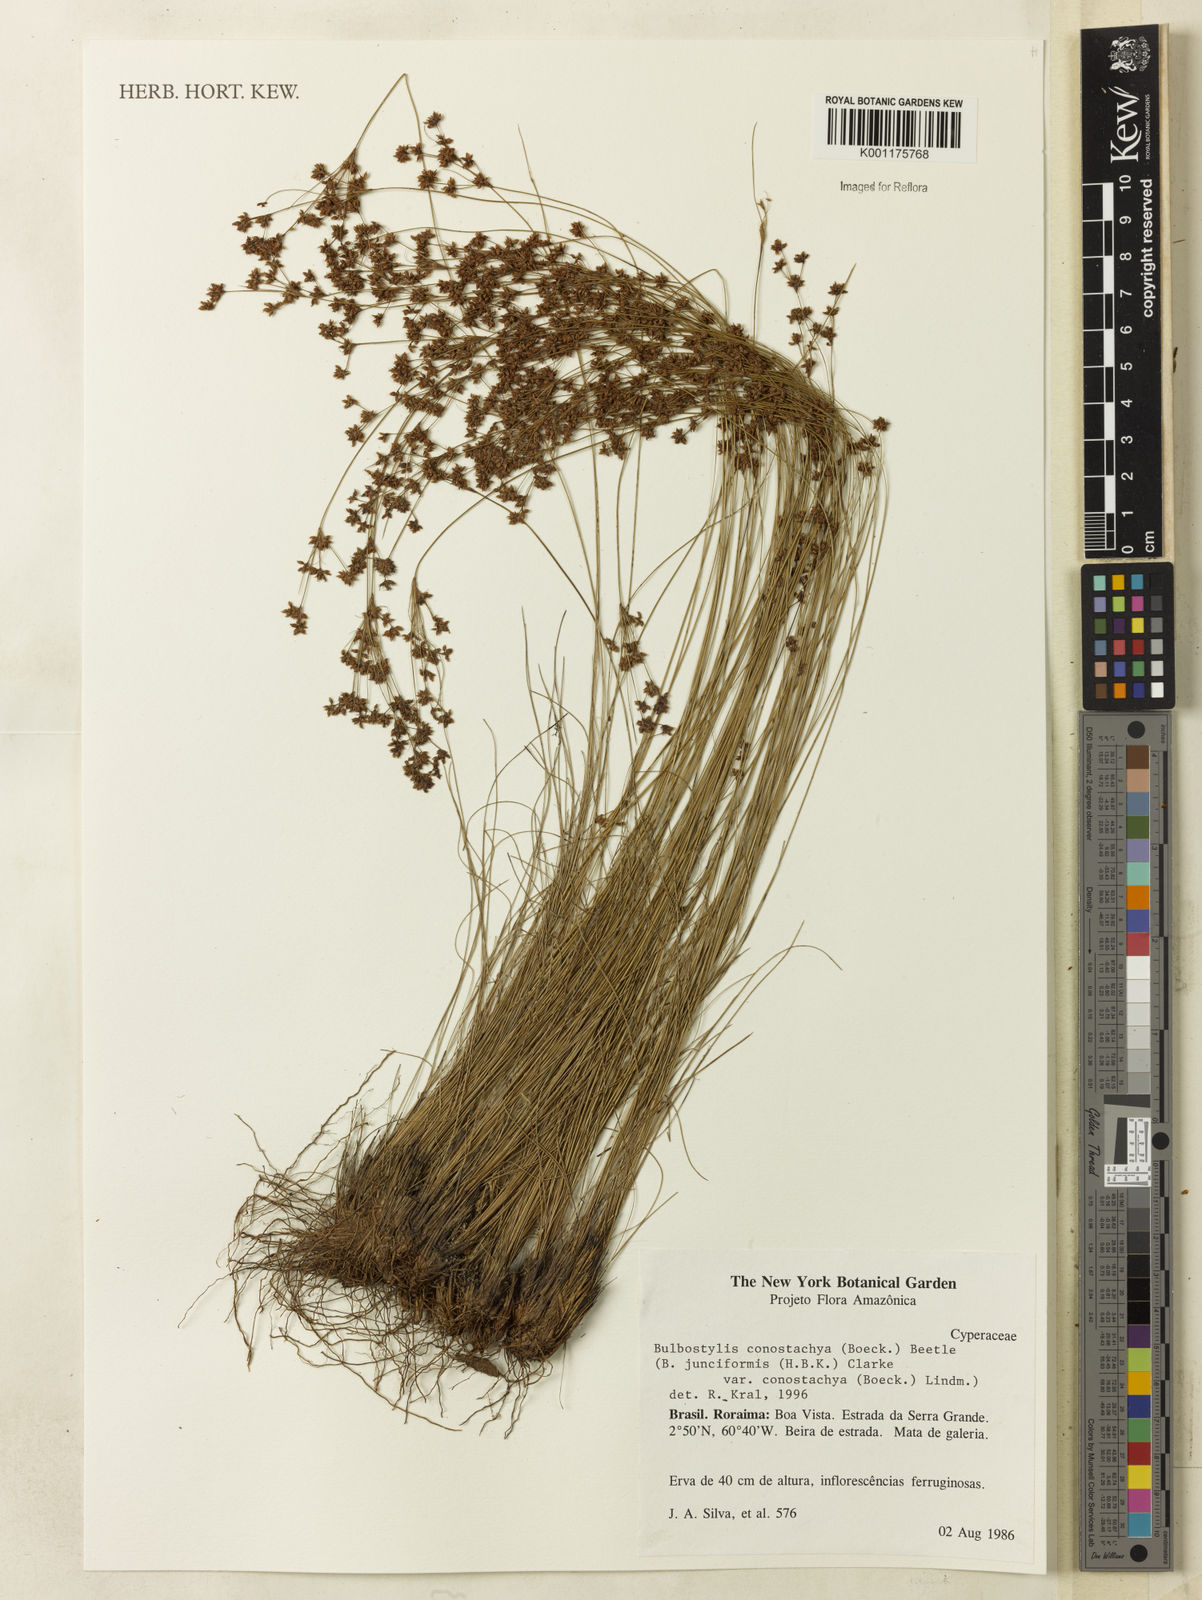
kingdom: Plantae
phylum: Tracheophyta
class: Liliopsida
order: Poales
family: Cyperaceae
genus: Bulbostylis
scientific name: Bulbostylis junciformis
